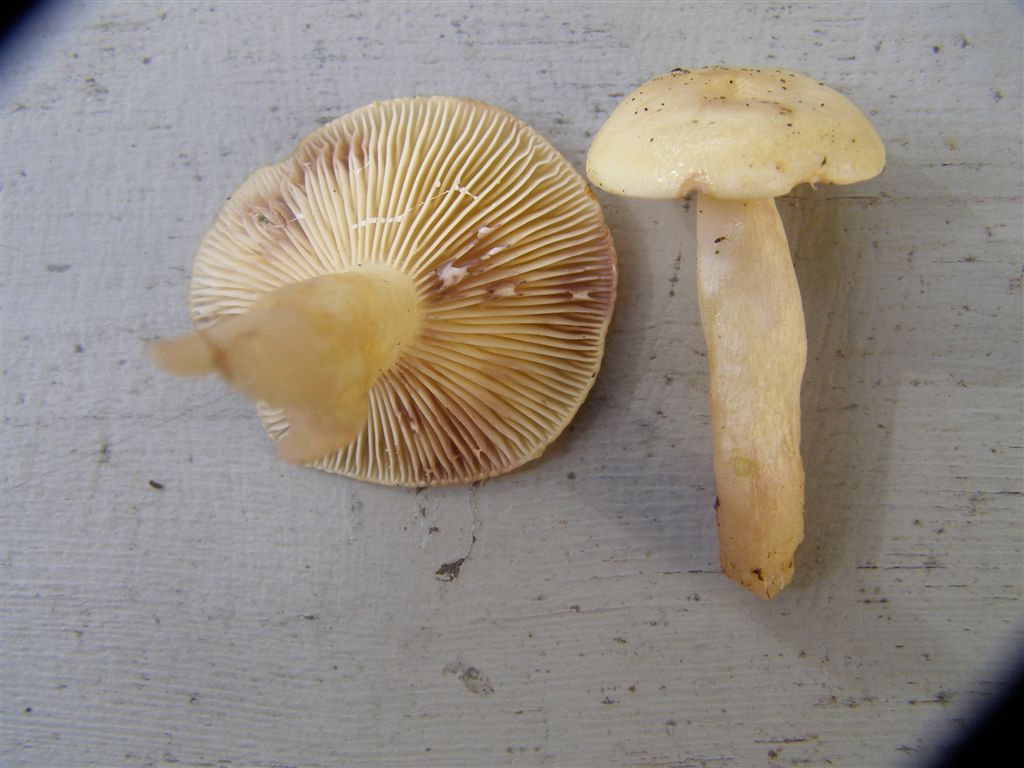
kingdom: Fungi
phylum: Basidiomycota
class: Agaricomycetes
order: Russulales
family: Russulaceae
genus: Lactarius
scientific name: Lactarius aspideus
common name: pile-mælkehat
